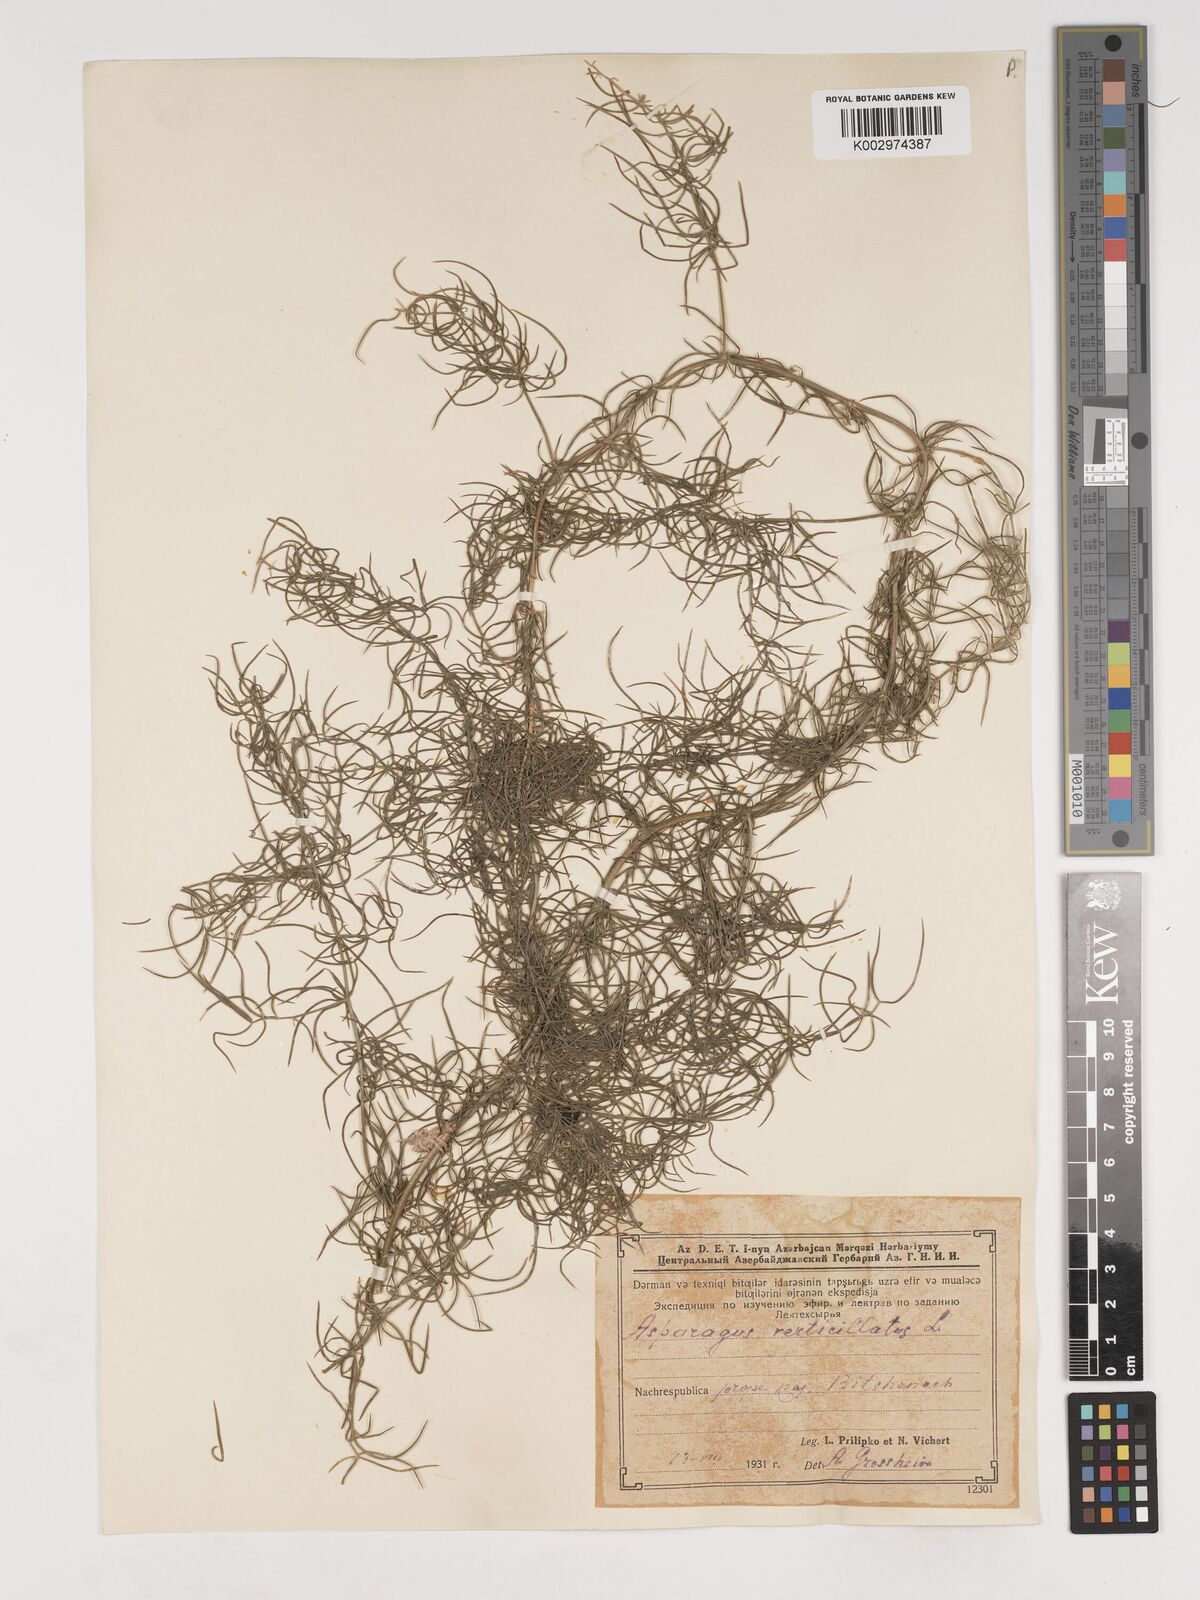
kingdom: Plantae
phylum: Tracheophyta
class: Liliopsida
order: Asparagales
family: Asparagaceae
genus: Asparagus
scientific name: Asparagus verticillatus
